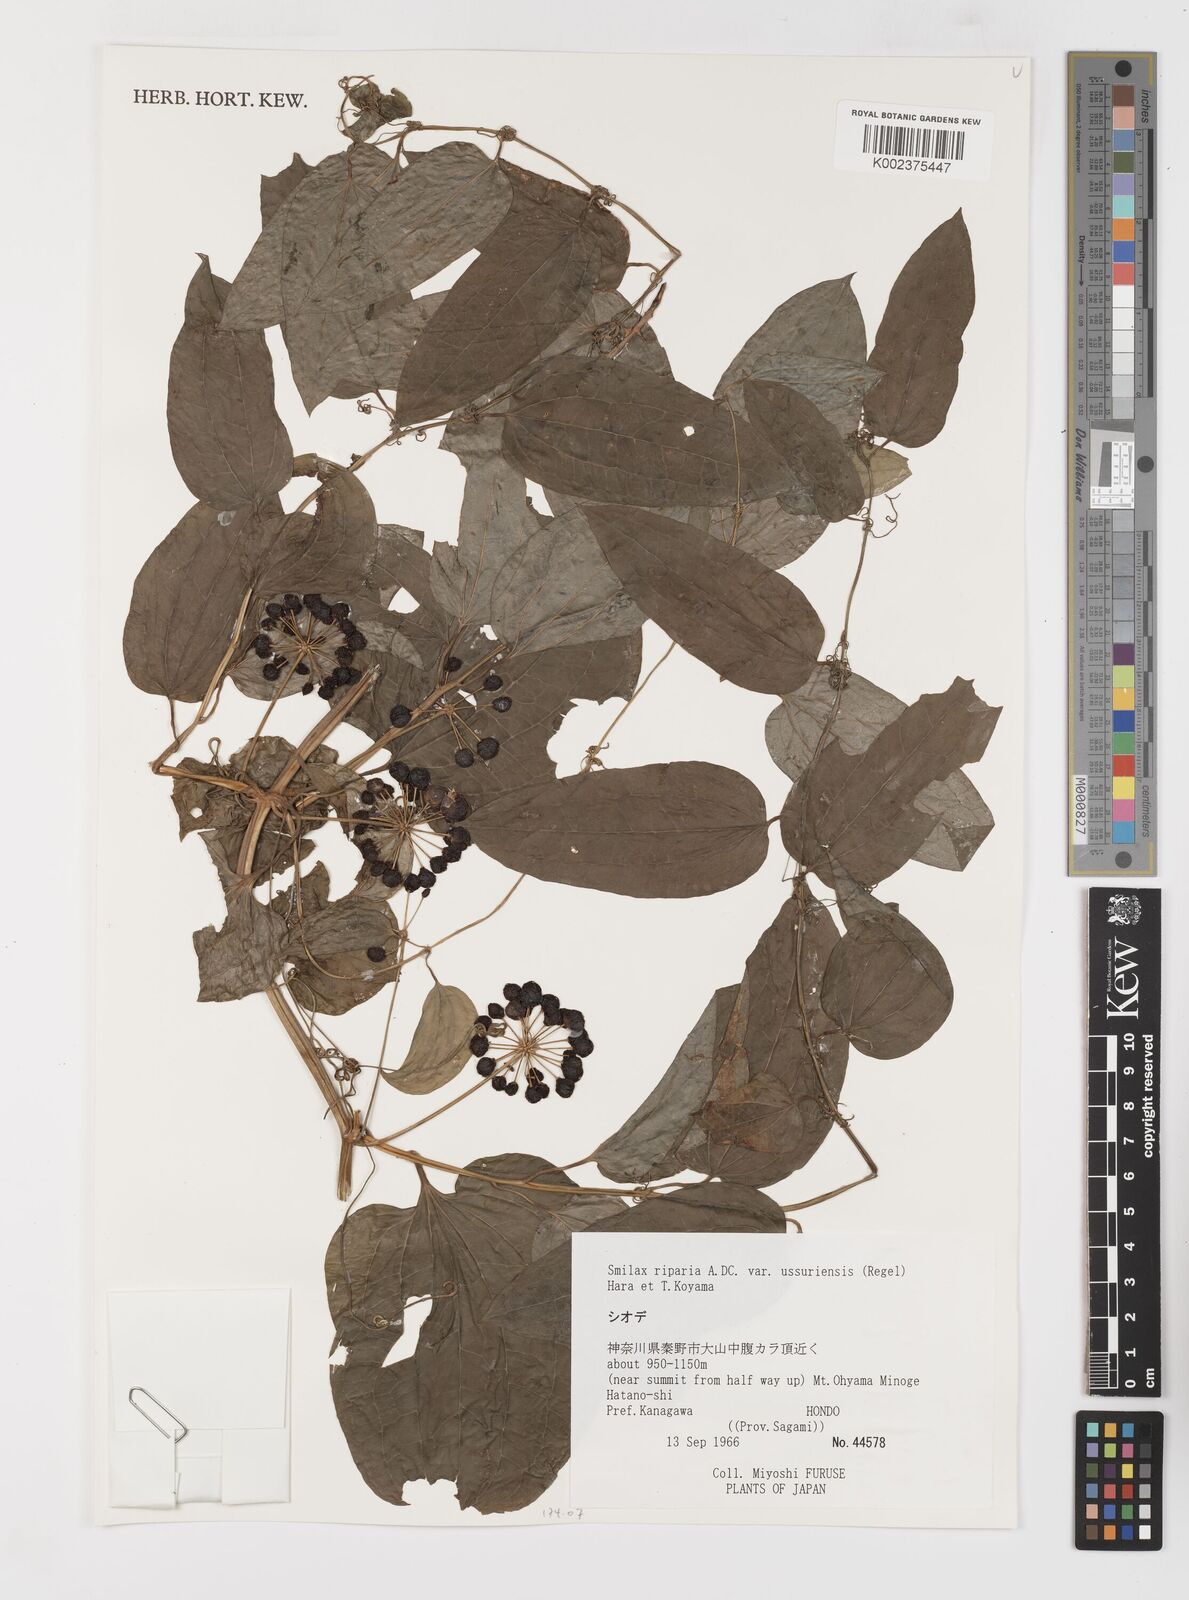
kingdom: Plantae
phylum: Tracheophyta
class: Liliopsida
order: Liliales
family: Smilacaceae
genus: Smilax
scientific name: Smilax riparia
